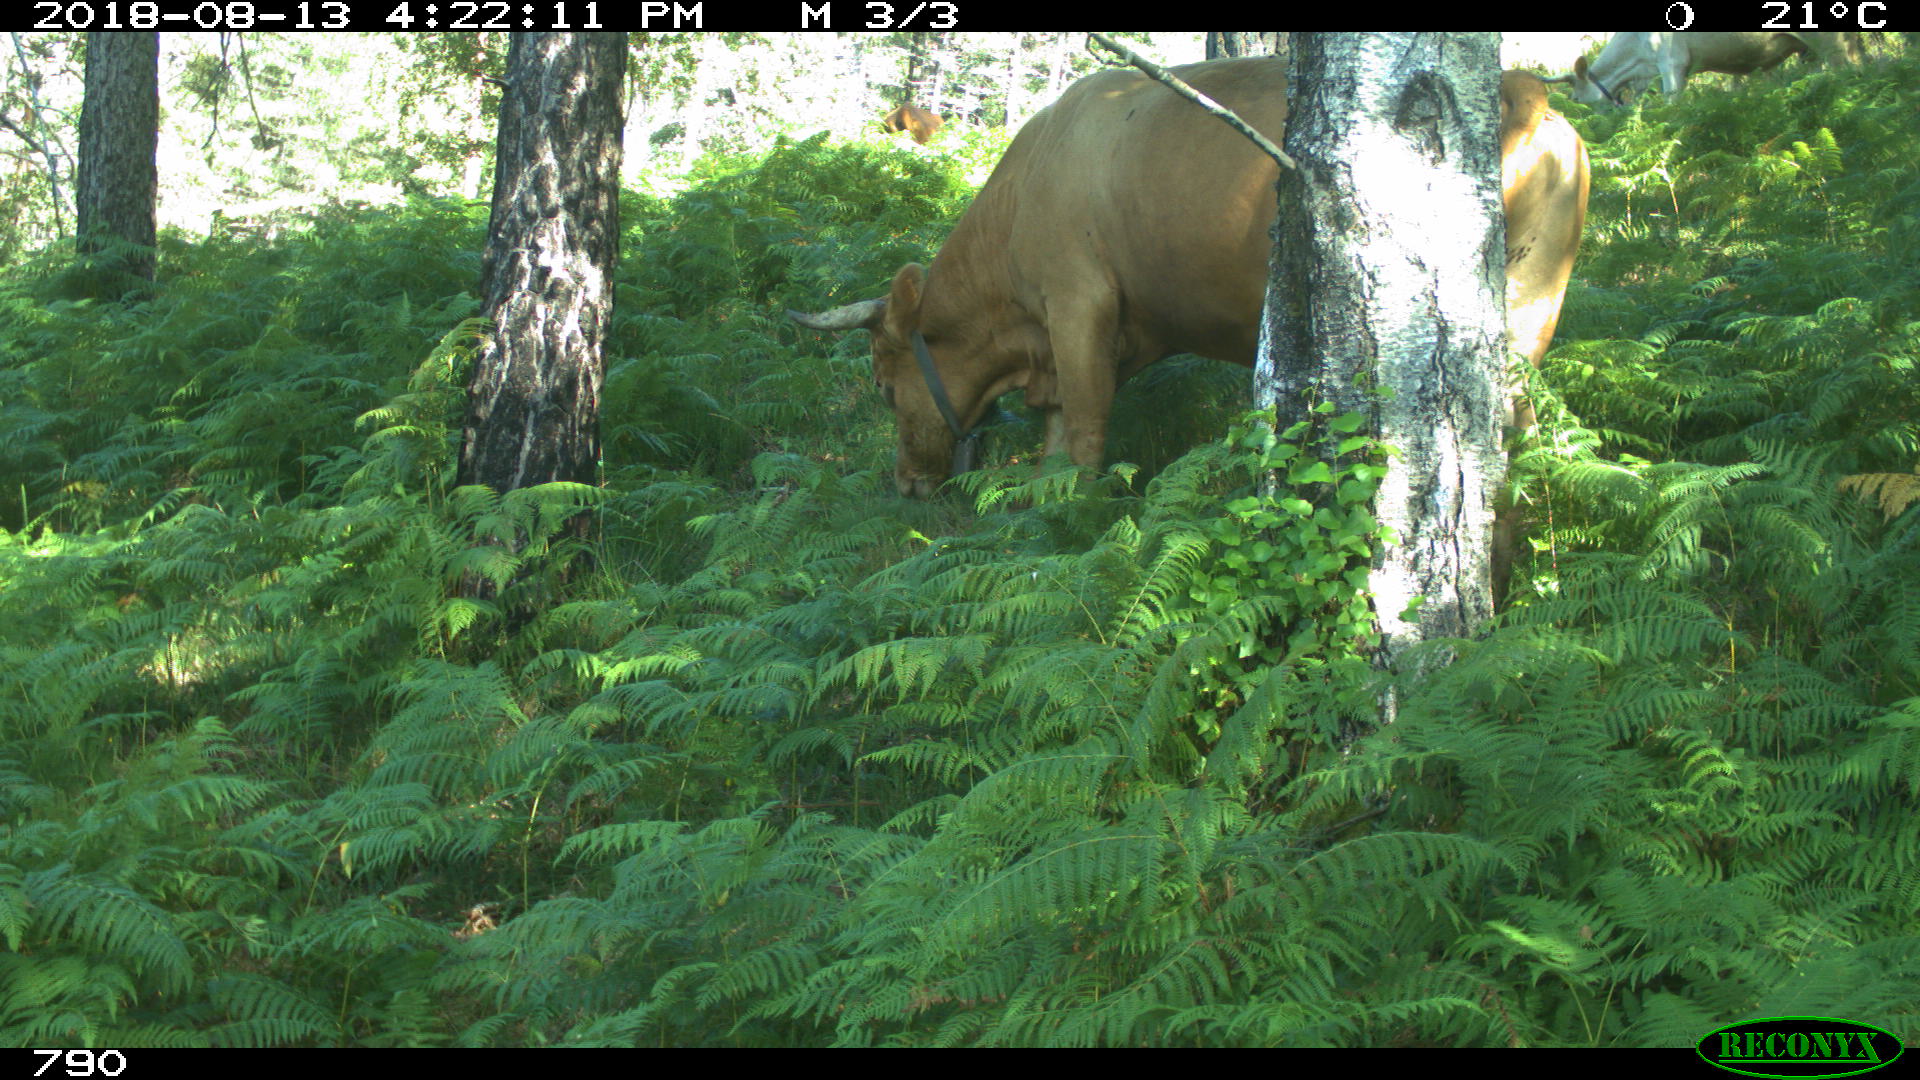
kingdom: Animalia
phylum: Chordata
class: Mammalia
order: Artiodactyla
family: Bovidae
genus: Bos
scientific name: Bos taurus
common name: Domesticated cattle
